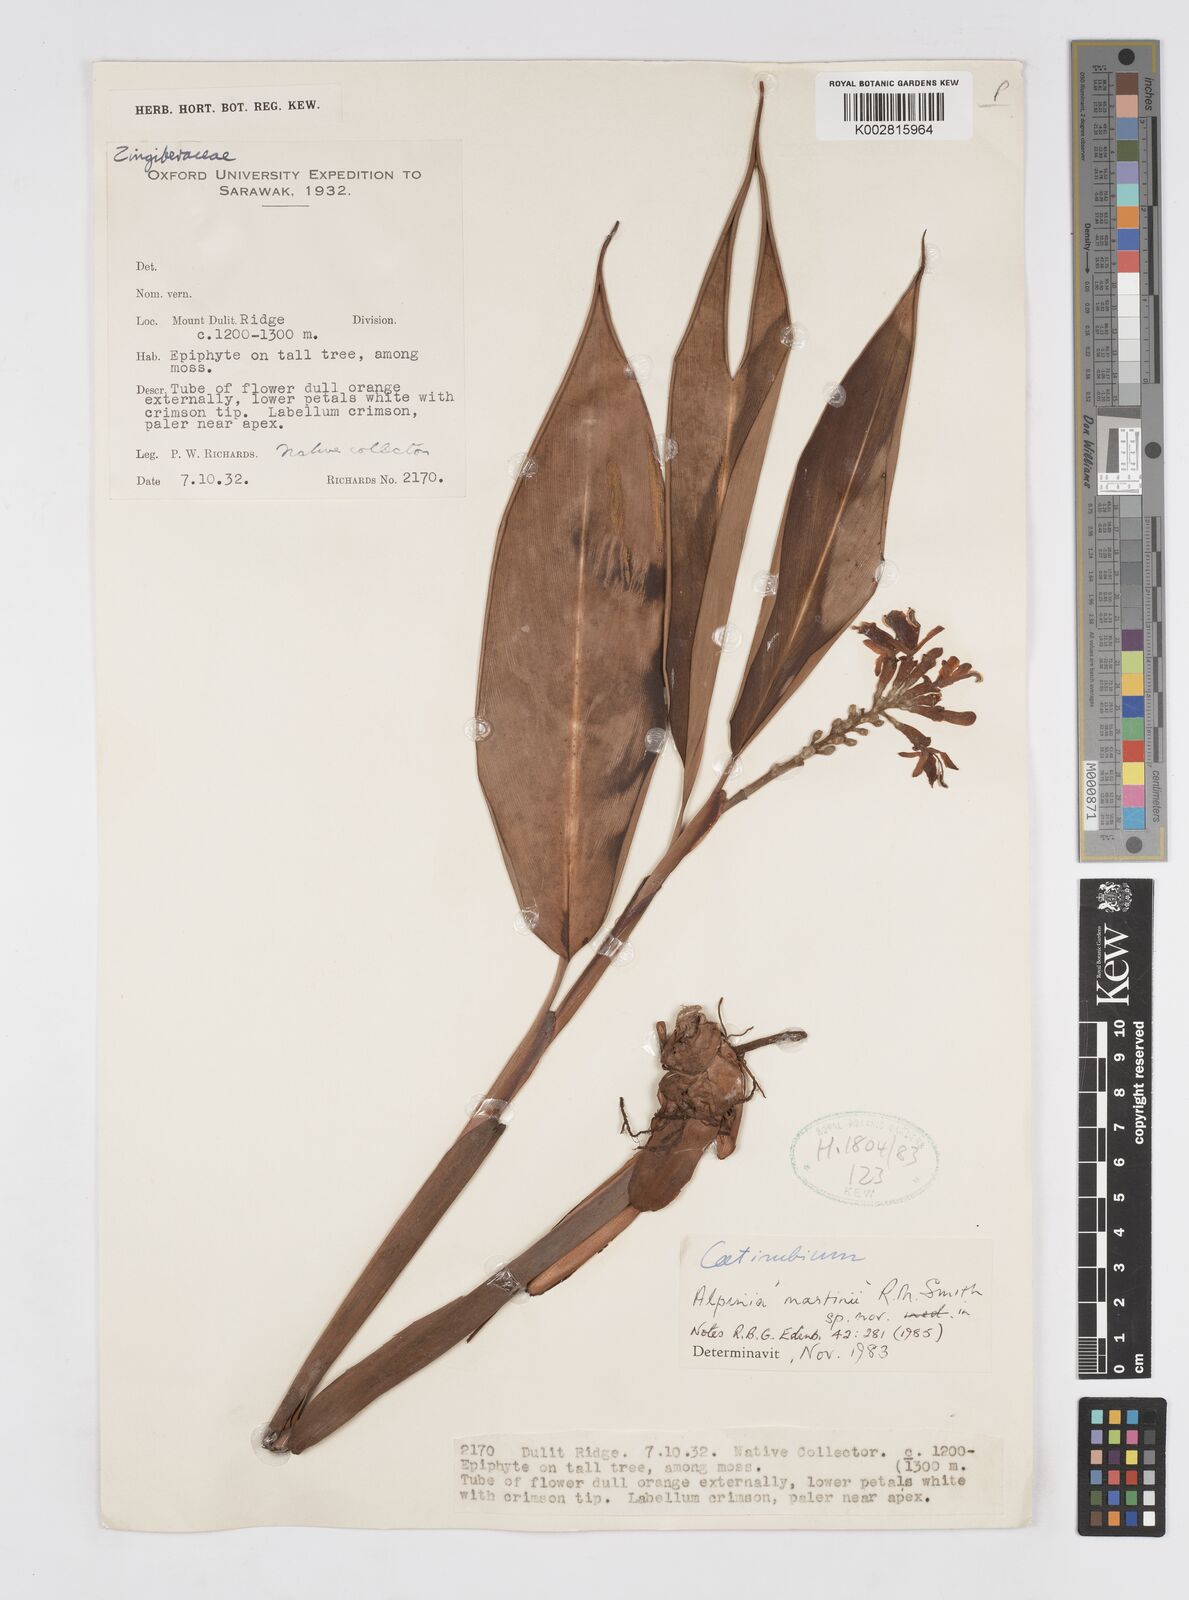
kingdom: Plantae
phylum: Tracheophyta
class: Liliopsida
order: Zingiberales
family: Zingiberaceae
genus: Alpinia
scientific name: Alpinia martini
